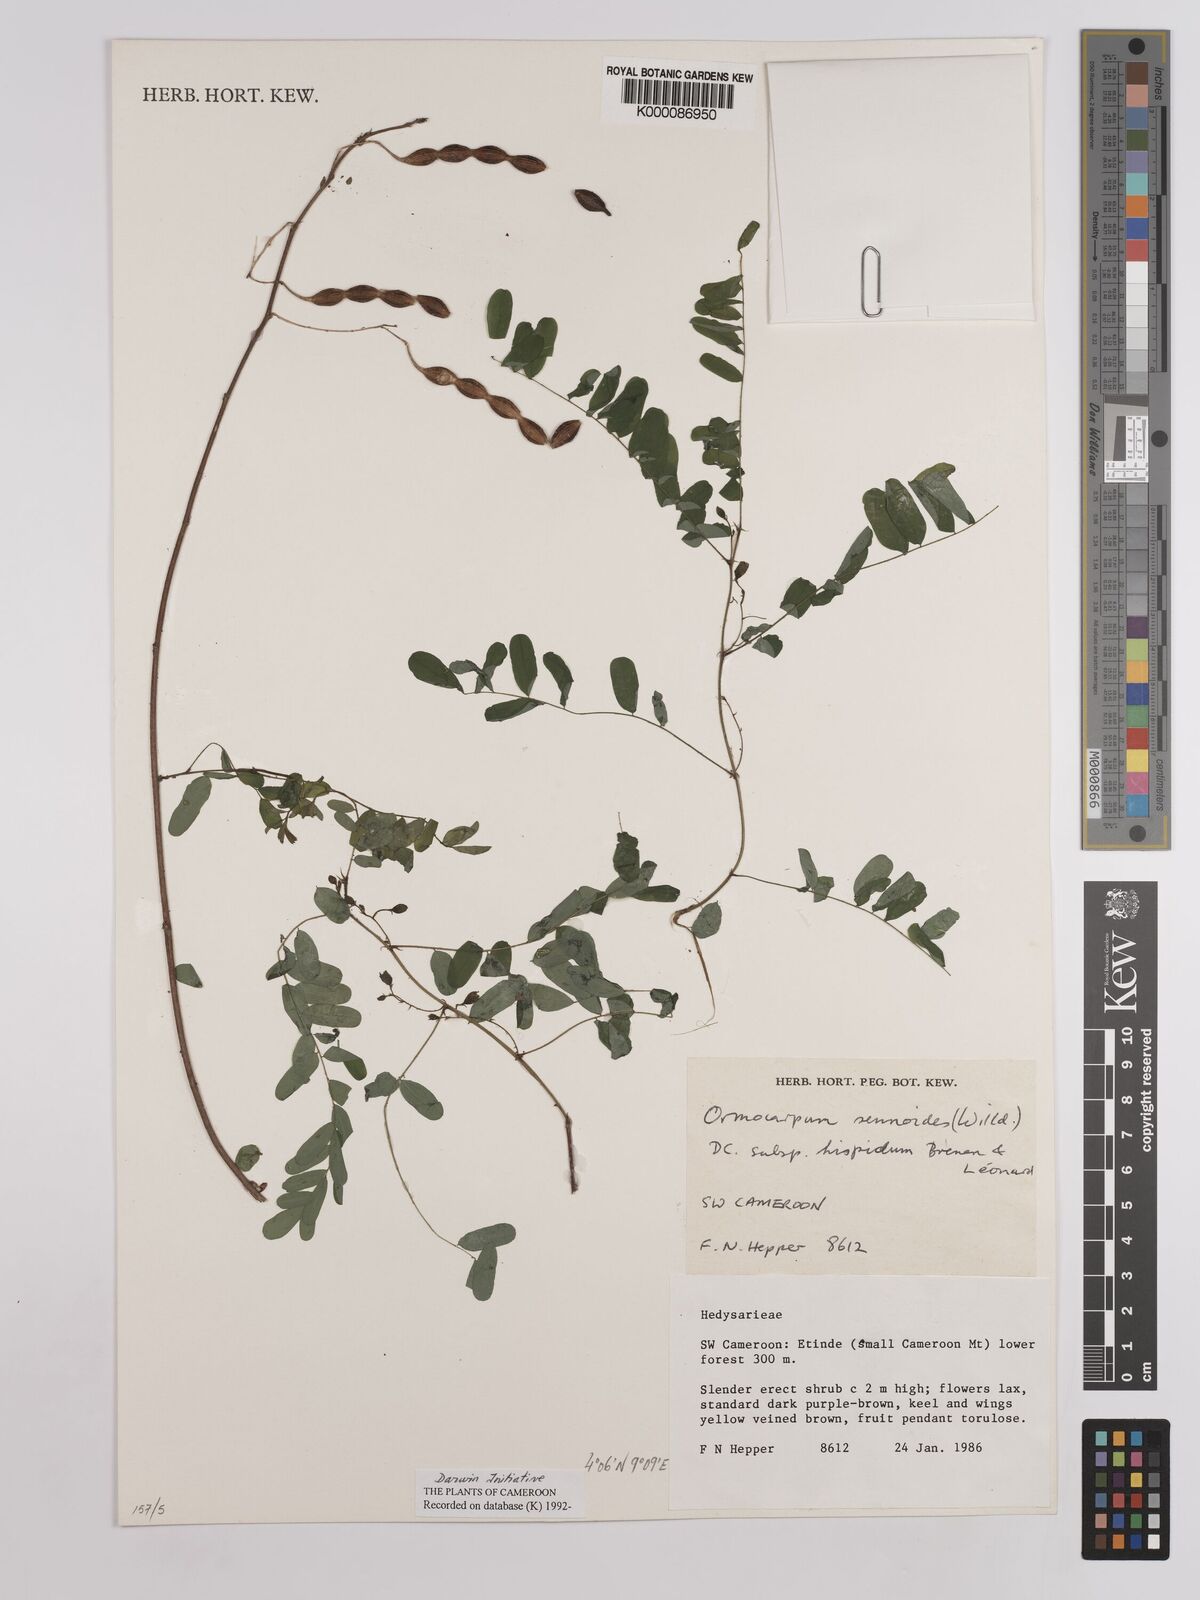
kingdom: Plantae
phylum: Tracheophyta
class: Magnoliopsida
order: Fabales
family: Fabaceae
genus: Ormocarpum
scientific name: Ormocarpum sennoides
